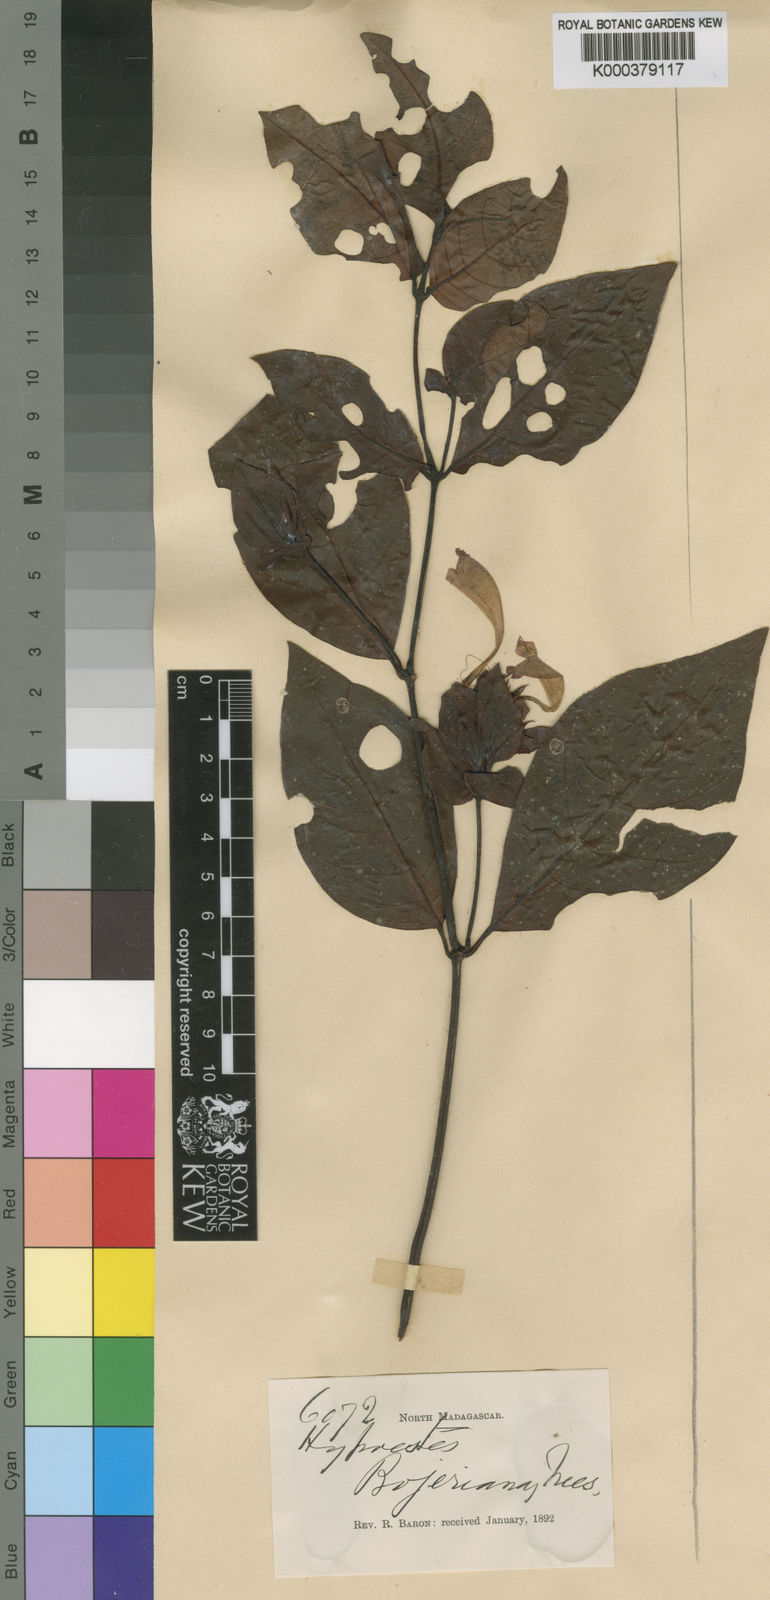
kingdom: Plantae
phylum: Tracheophyta
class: Magnoliopsida
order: Lamiales
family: Acanthaceae
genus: Hypoestes
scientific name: Hypoestes fascicularis
